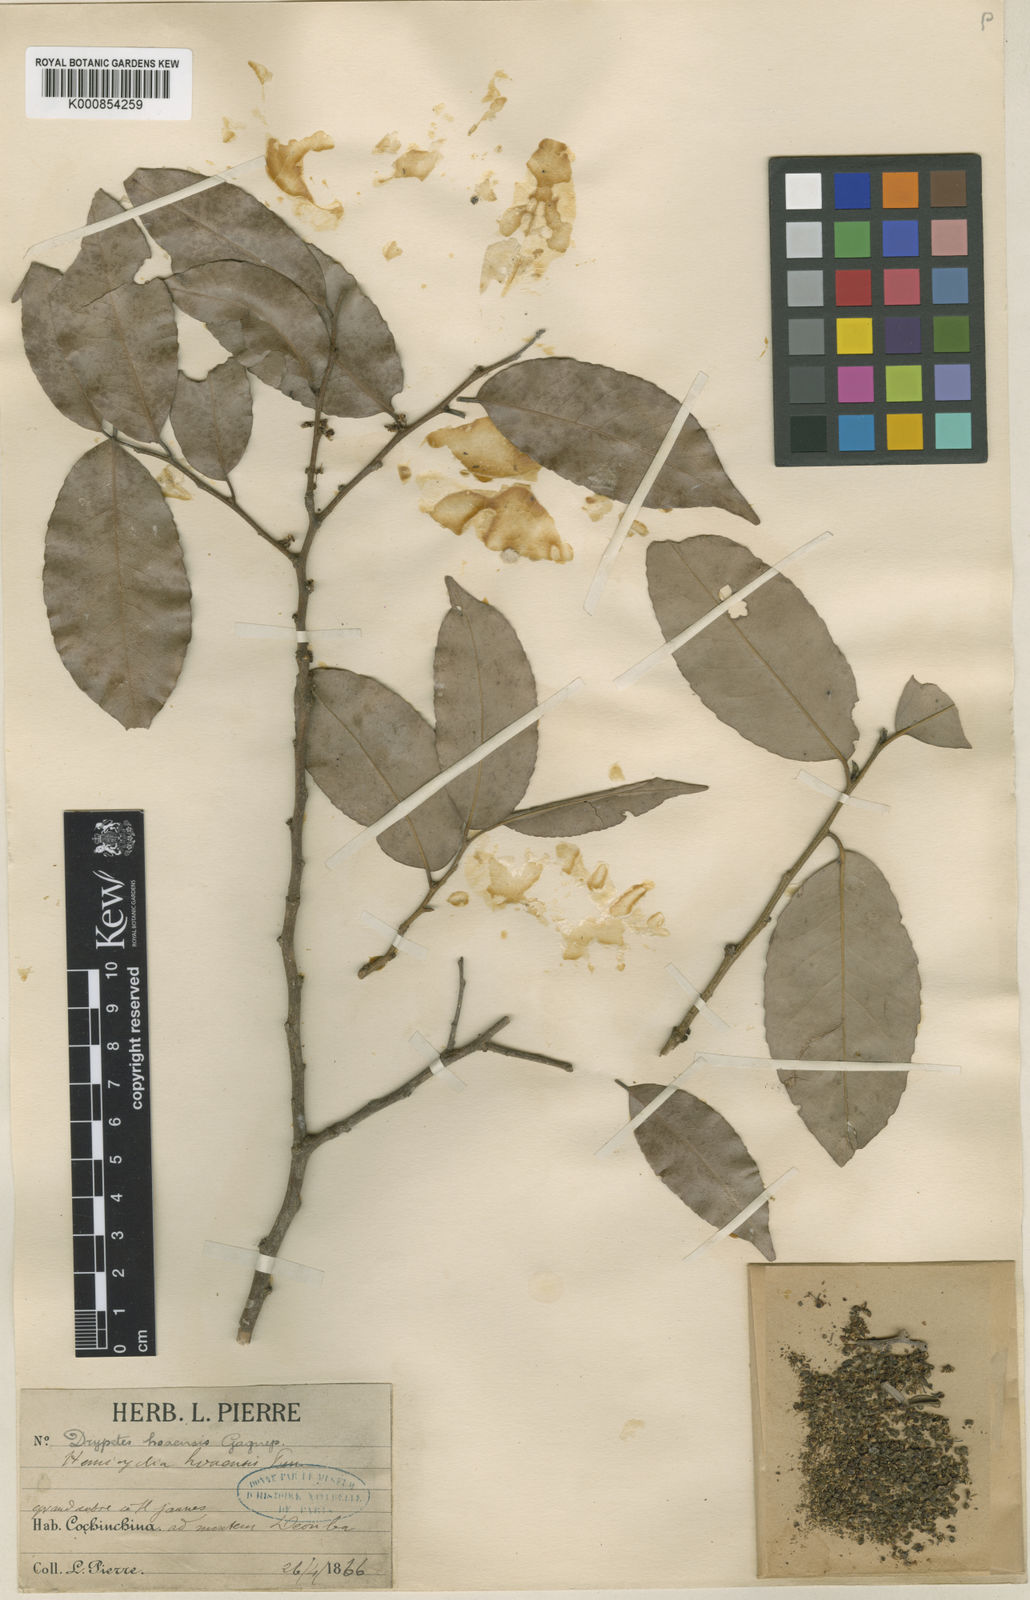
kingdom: Plantae
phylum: Tracheophyta
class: Magnoliopsida
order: Malpighiales
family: Putranjivaceae
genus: Drypetes
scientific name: Drypetes hoaensis
